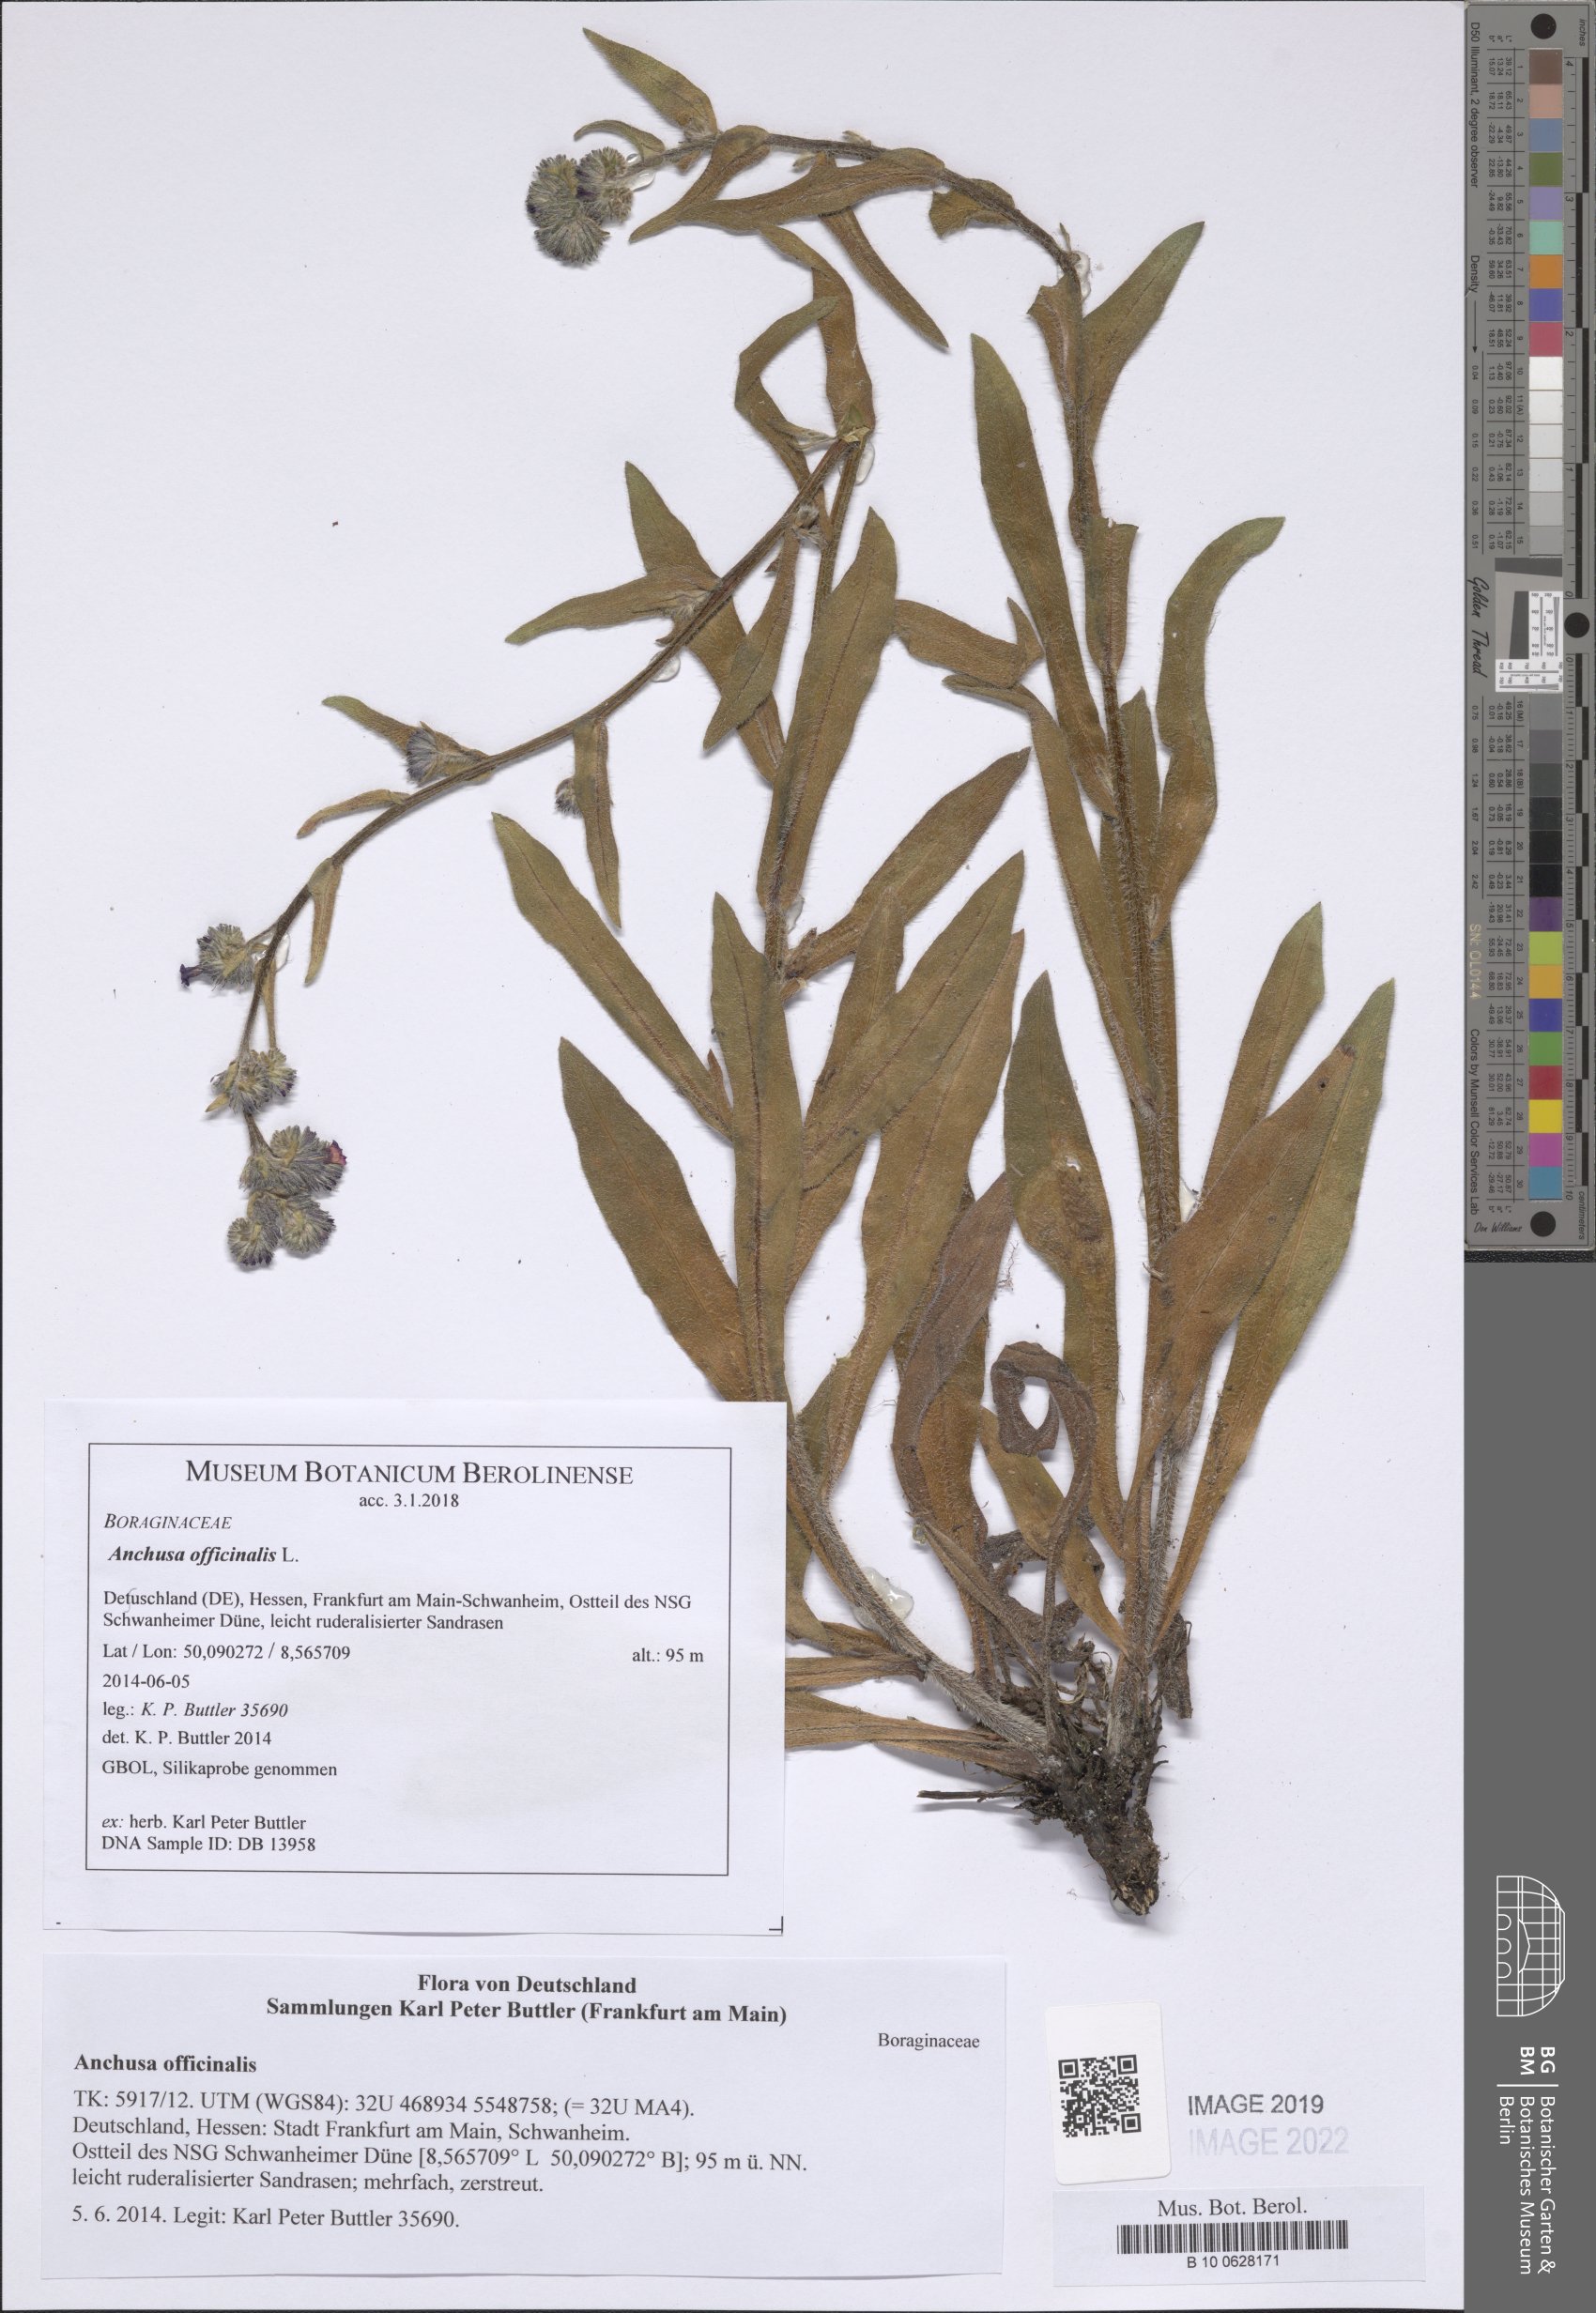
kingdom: Plantae
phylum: Tracheophyta
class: Magnoliopsida
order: Boraginales
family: Boraginaceae
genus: Anchusa
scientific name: Anchusa officinalis
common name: Alkanet
